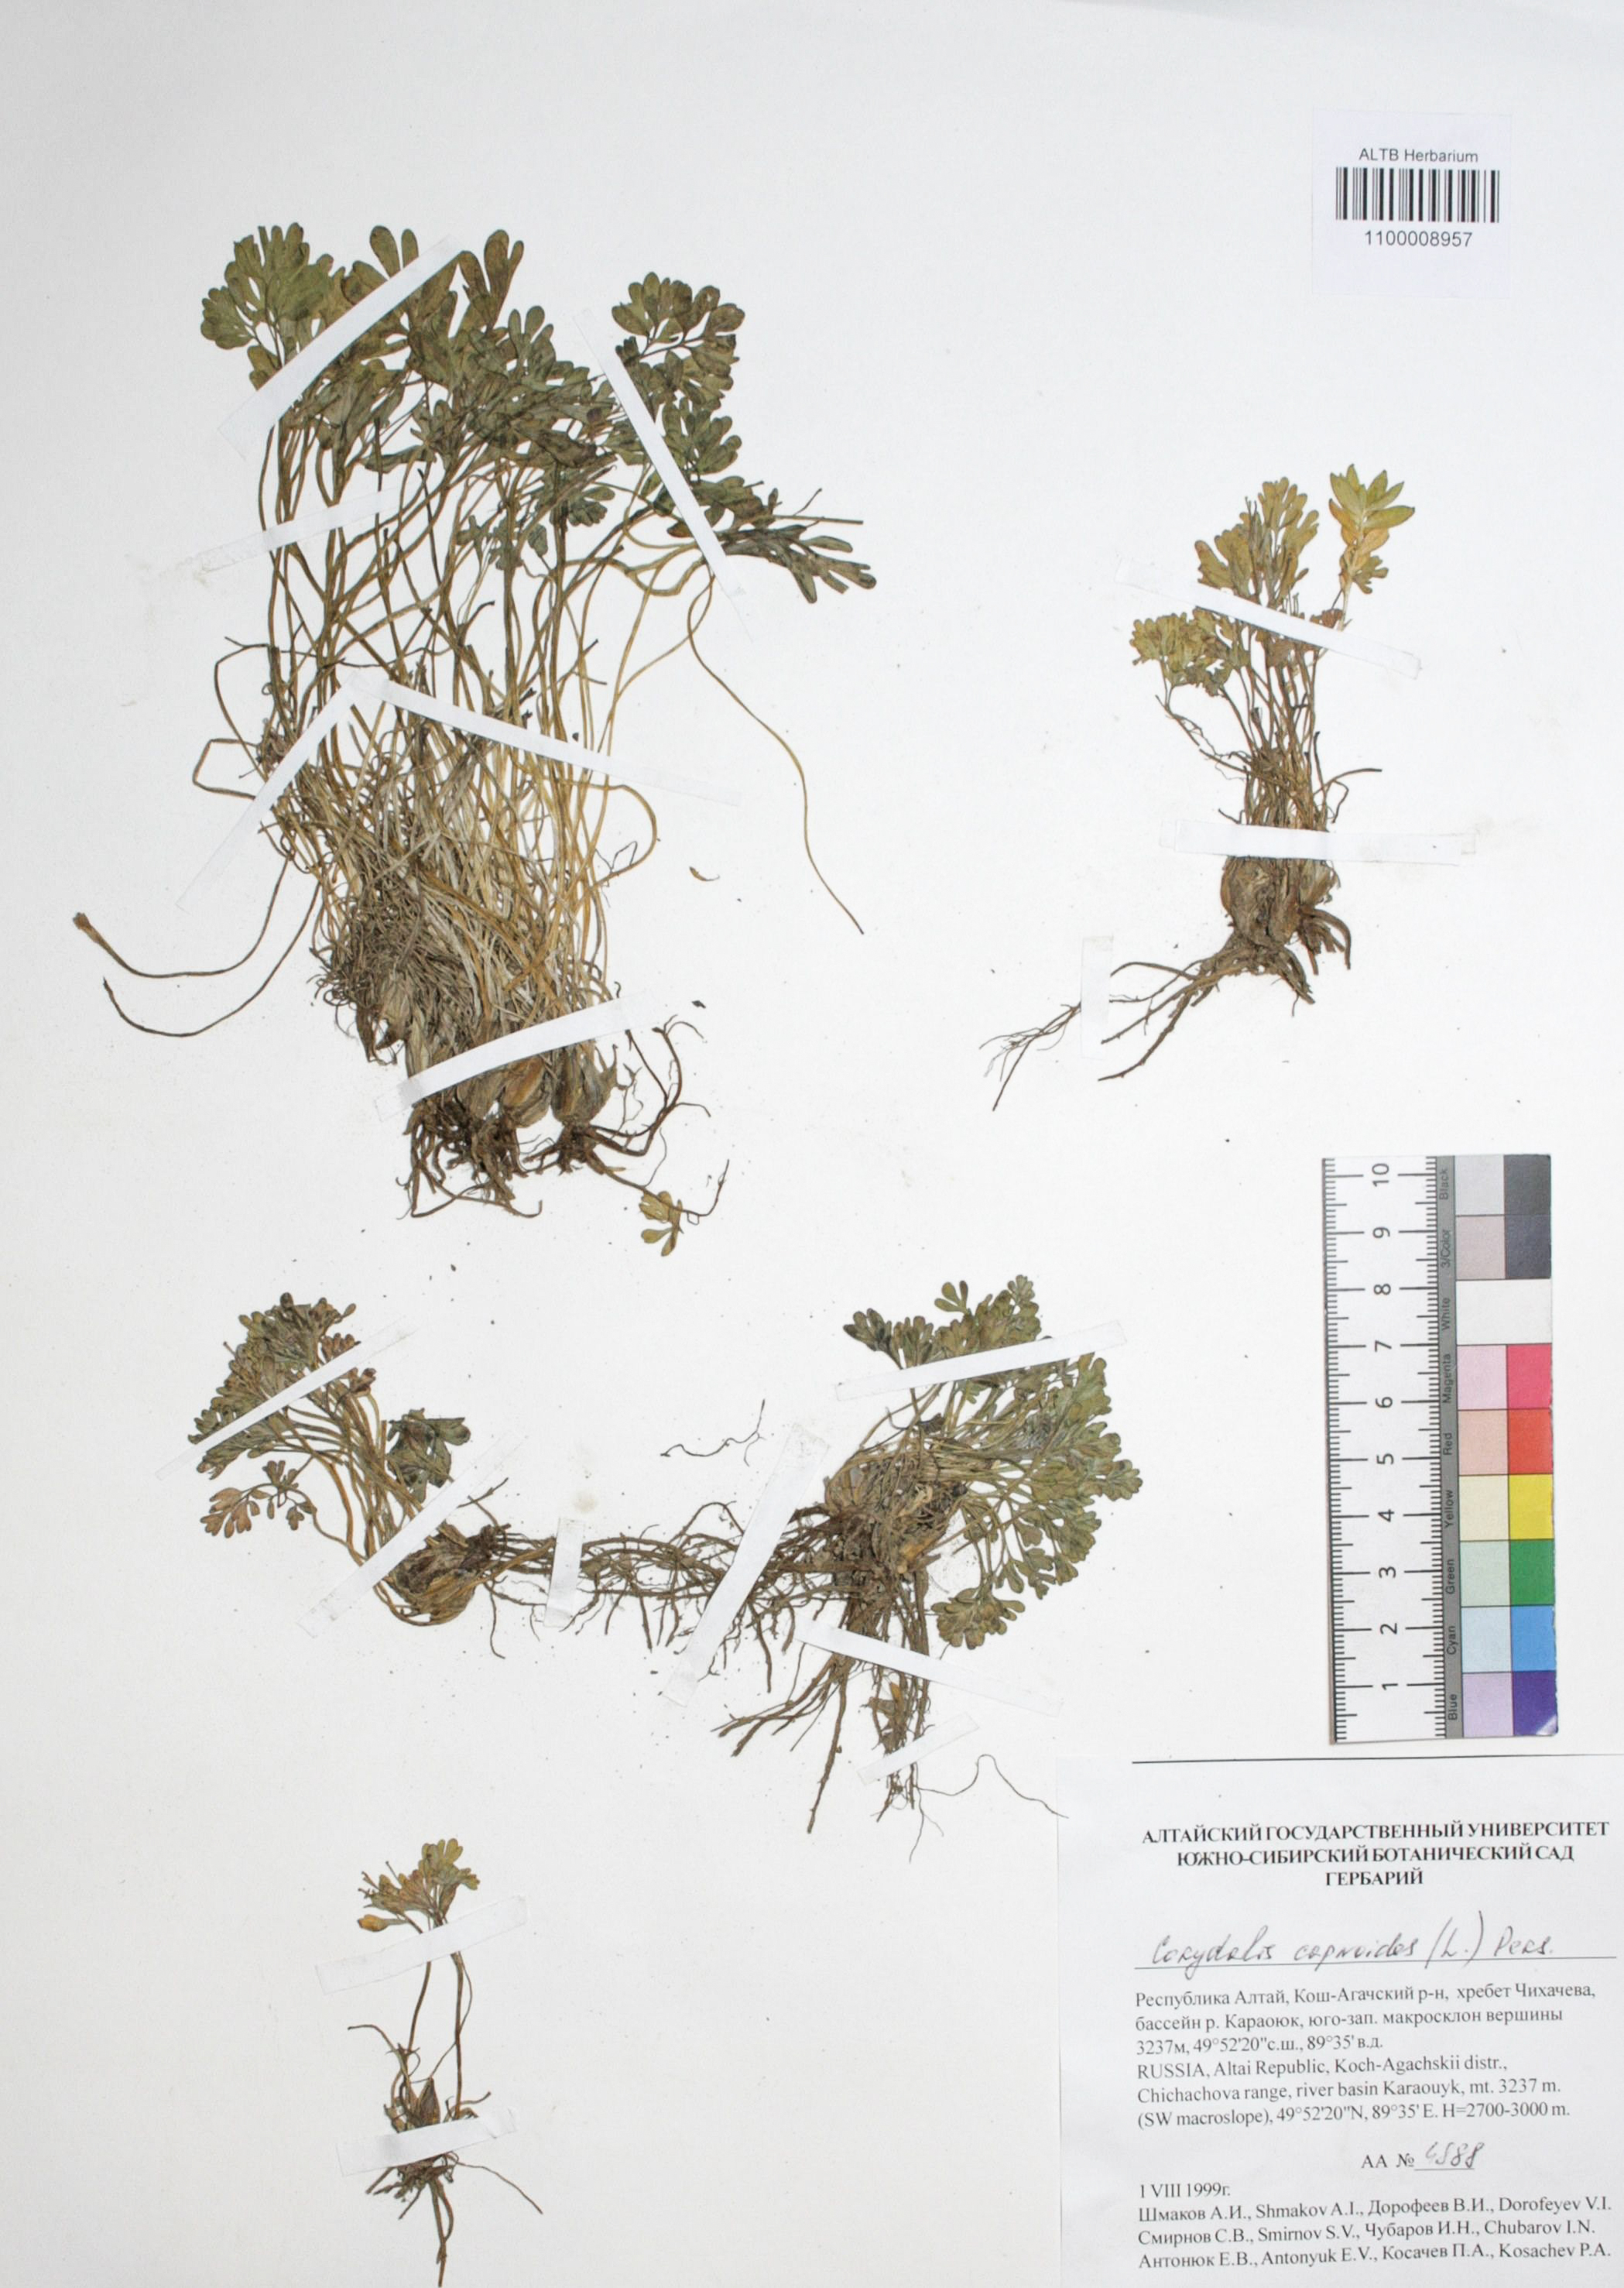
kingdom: Plantae
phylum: Tracheophyta
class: Magnoliopsida
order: Ranunculales
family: Papaveraceae
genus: Corydalis
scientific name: Corydalis capnoides
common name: Beaked corydalis
